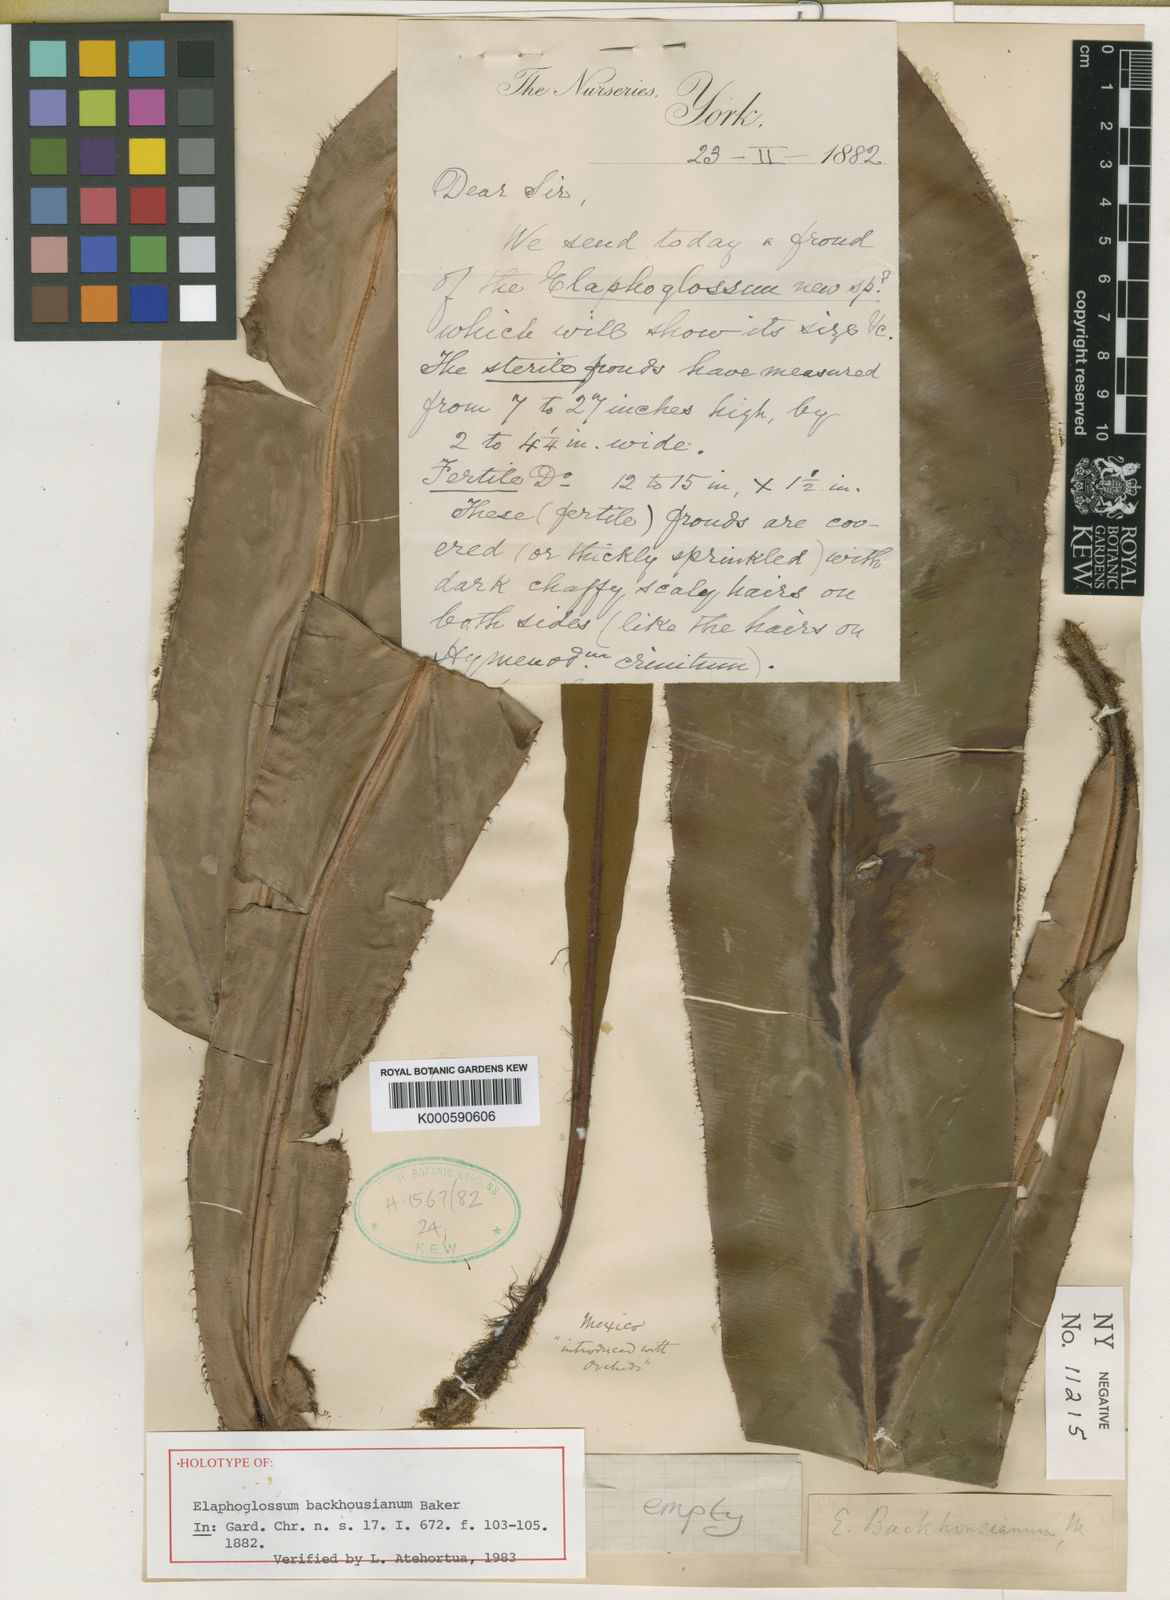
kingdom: Plantae
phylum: Tracheophyta
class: Polypodiopsida
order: Polypodiales
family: Dryopteridaceae
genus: Elaphoglossum
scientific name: Elaphoglossum
